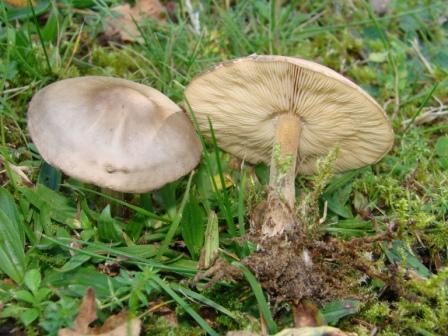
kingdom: Fungi
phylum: Basidiomycota
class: Agaricomycetes
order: Agaricales
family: Tricholomataceae
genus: Melanoleuca
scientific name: Melanoleuca polioleuca
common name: almindelig munkehat
